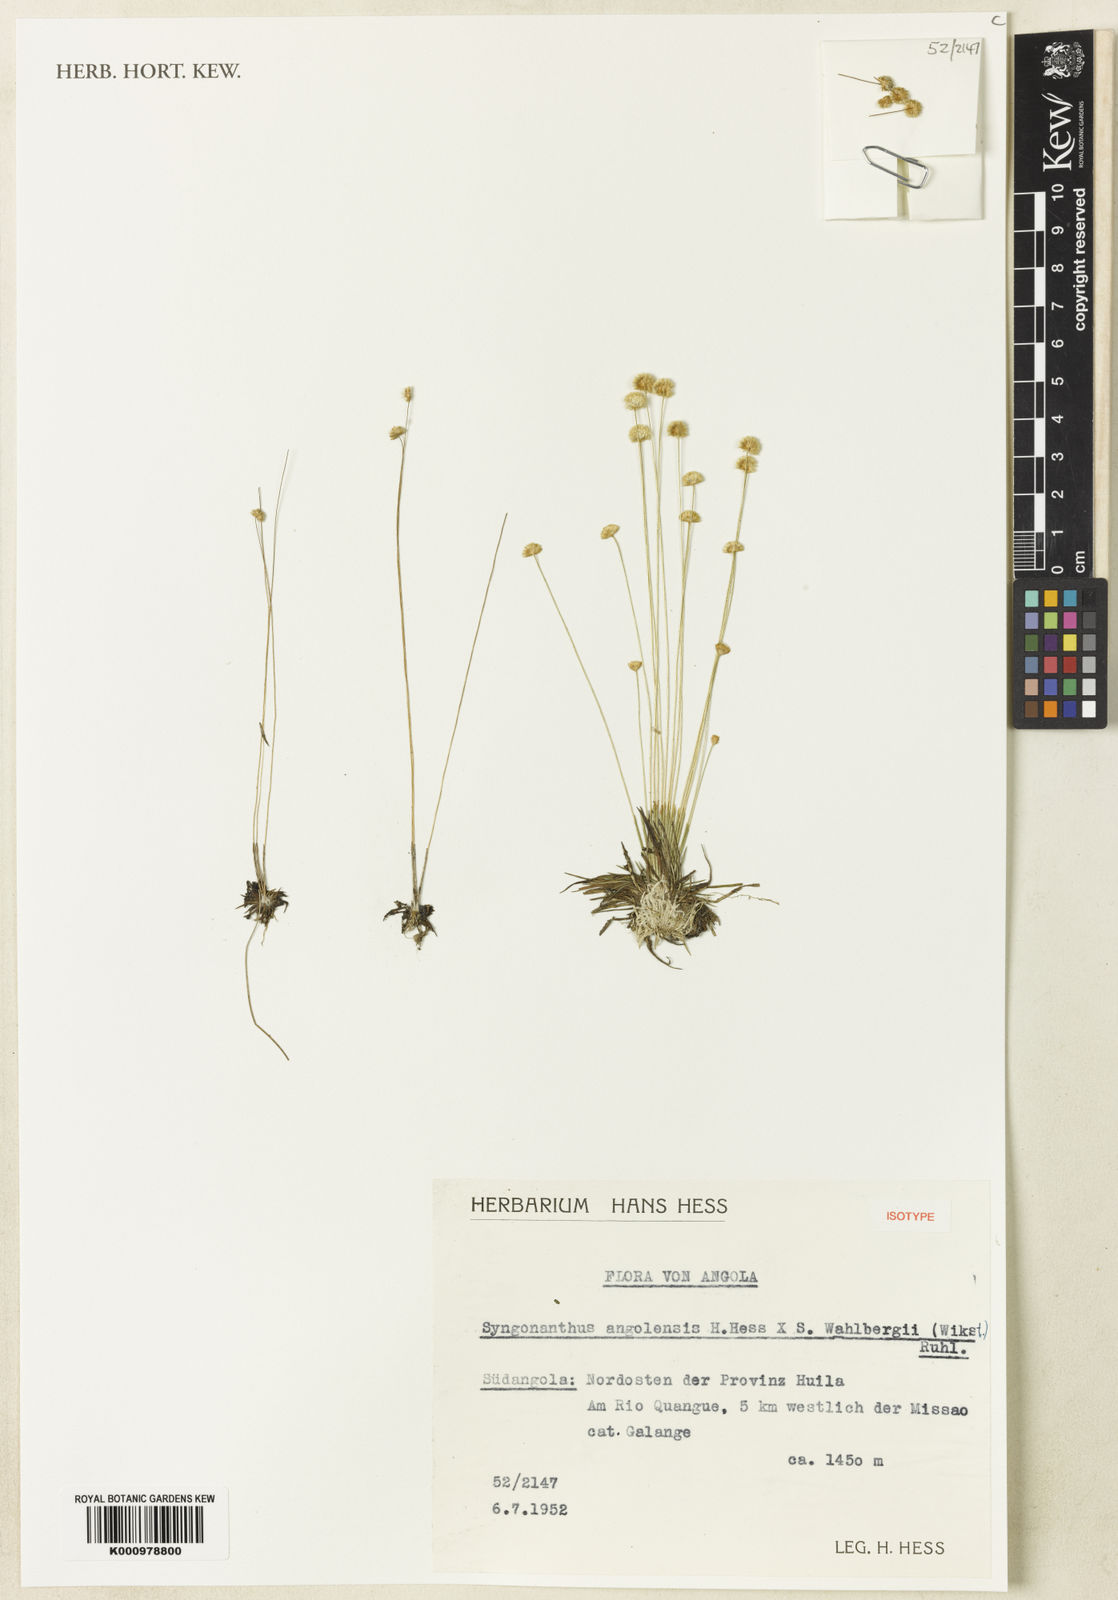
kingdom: Plantae
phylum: Tracheophyta
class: Liliopsida
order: Poales
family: Eriocaulaceae
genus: Syngonanthus
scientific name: Syngonanthus angolensis
